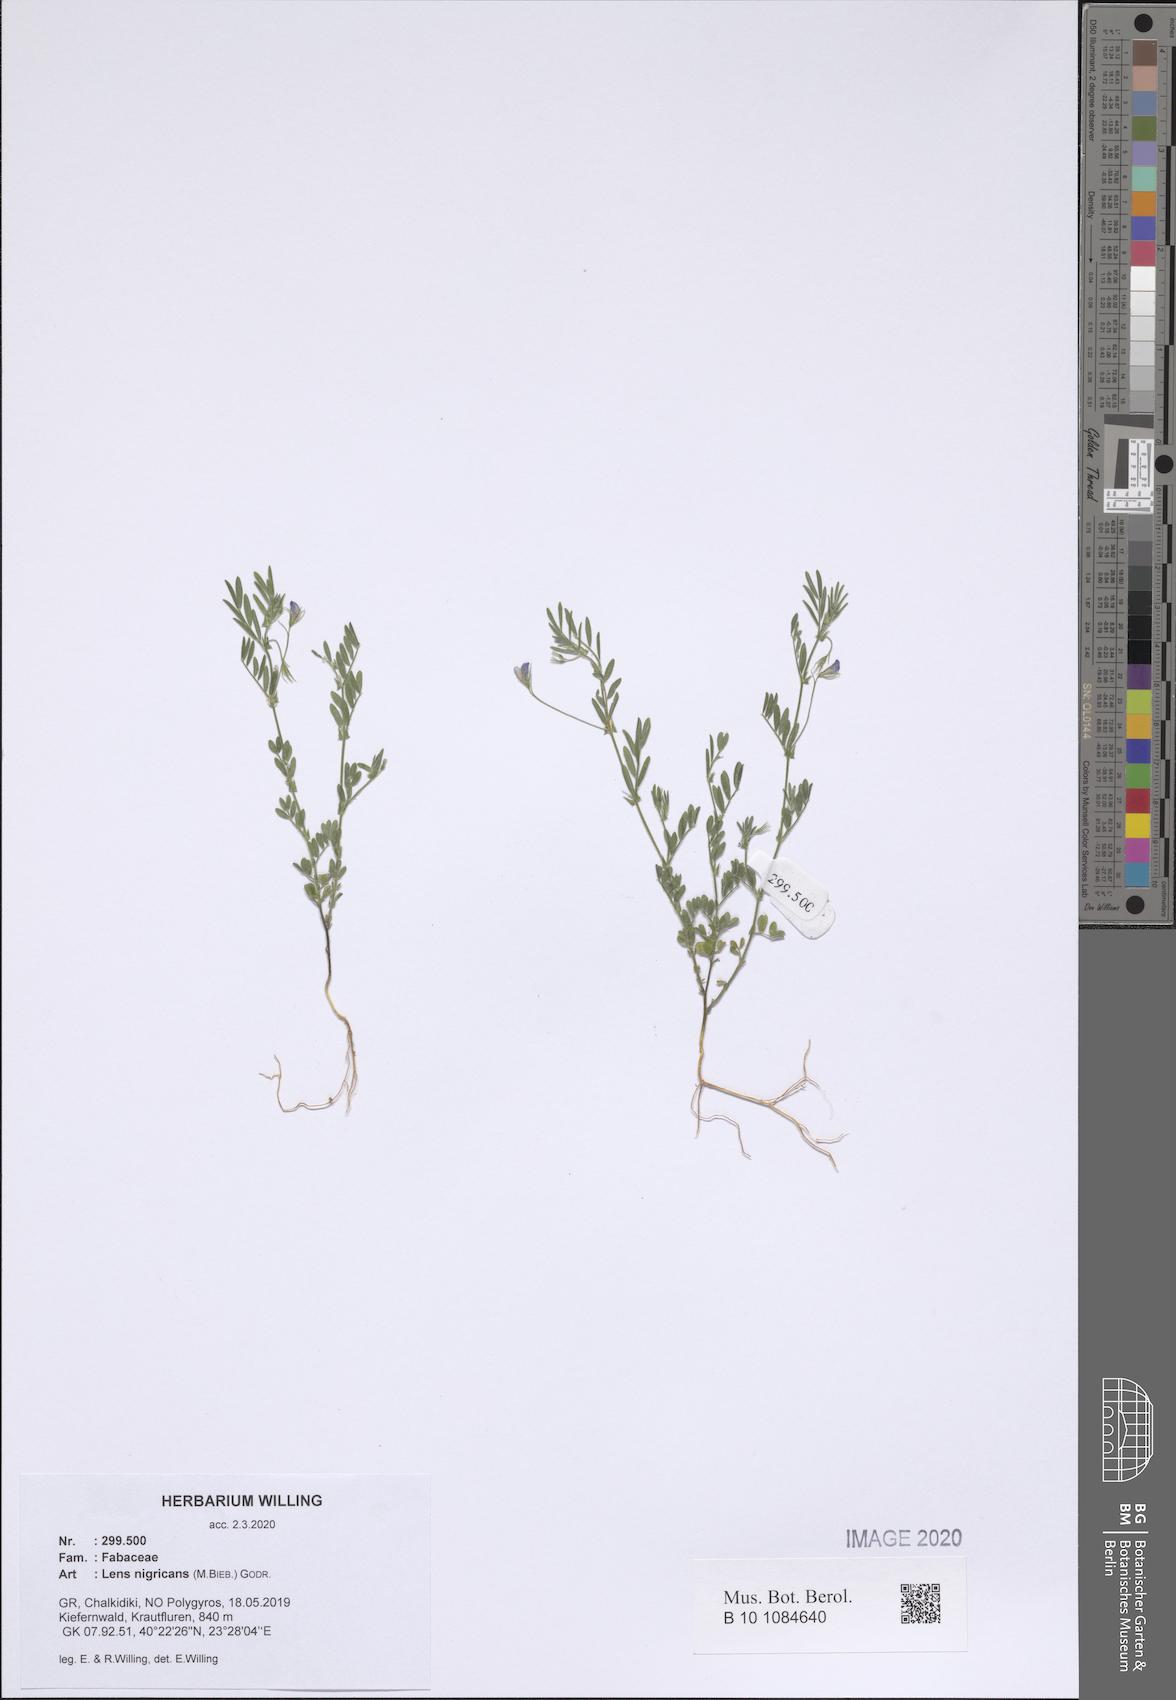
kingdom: Plantae
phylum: Tracheophyta
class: Magnoliopsida
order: Fabales
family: Fabaceae
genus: Vicia
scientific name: Vicia lentoides
